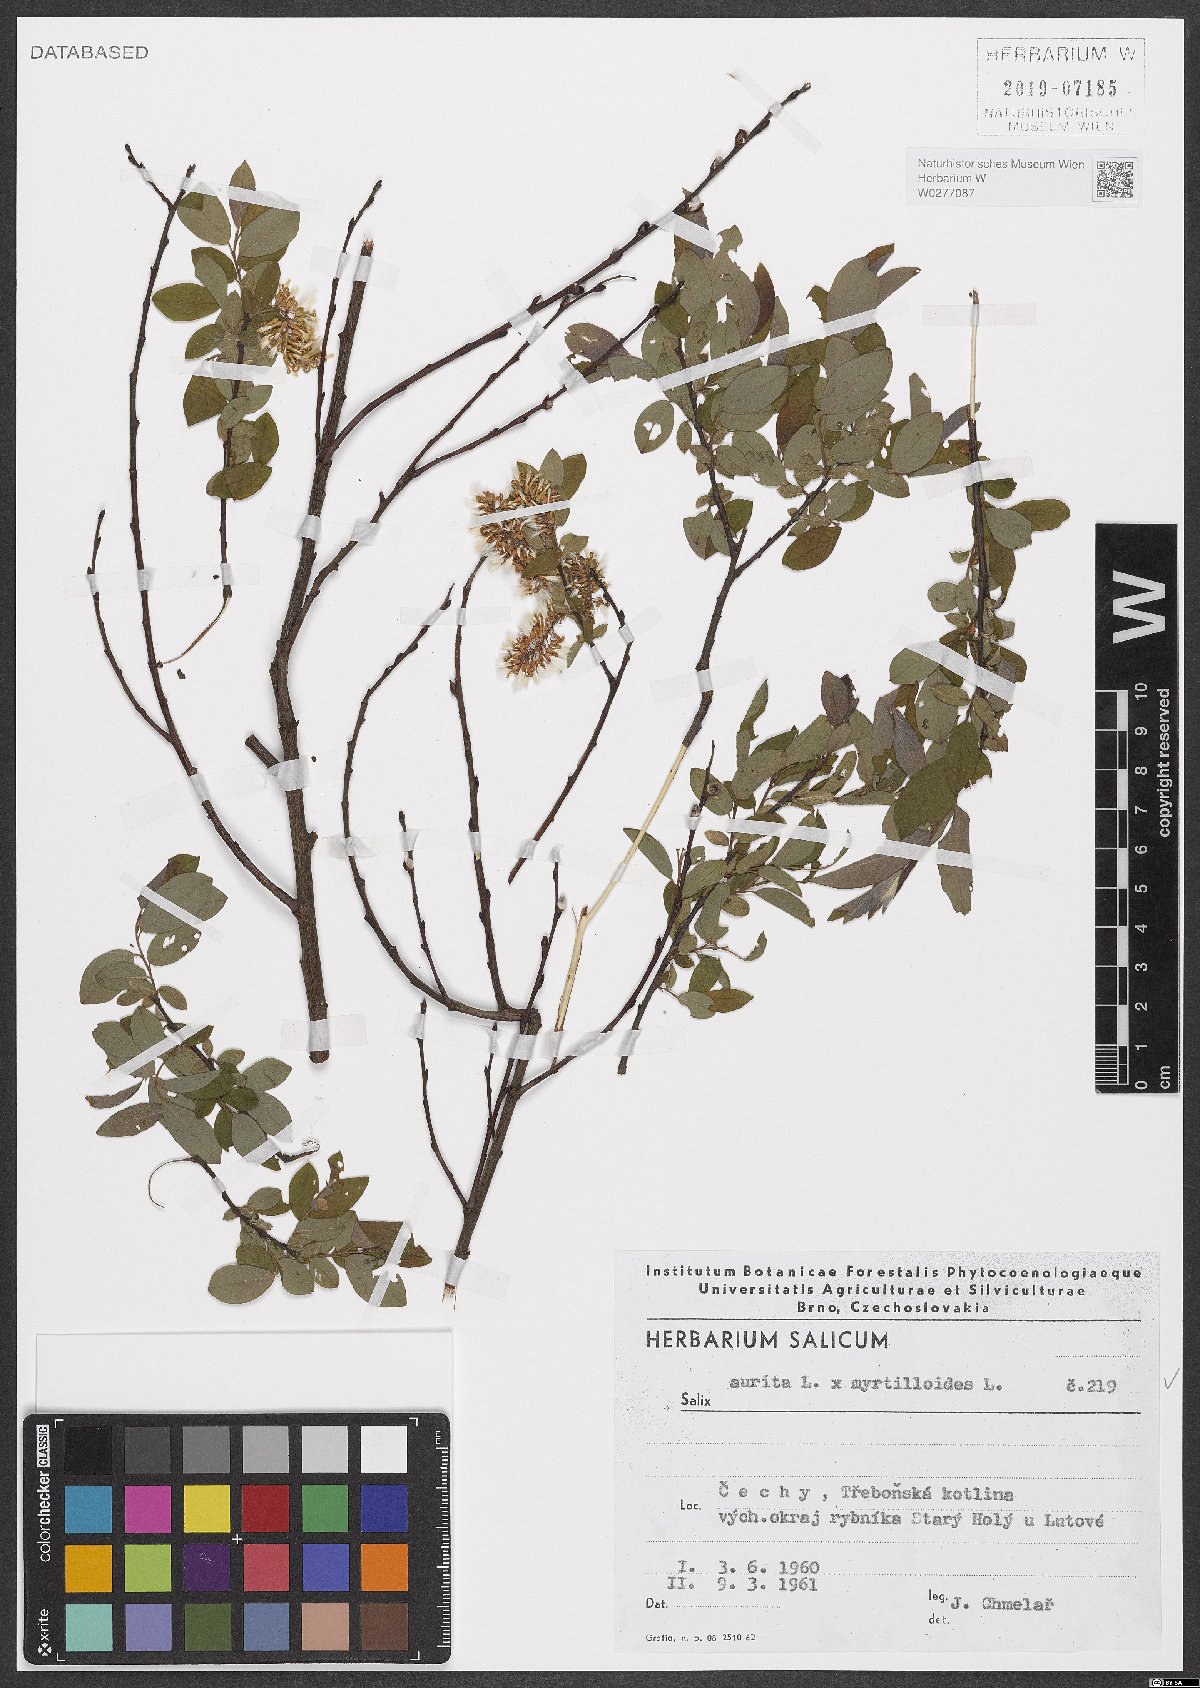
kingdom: Plantae
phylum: Tracheophyta
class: Magnoliopsida
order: Malpighiales
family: Salicaceae
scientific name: Salicaceae
